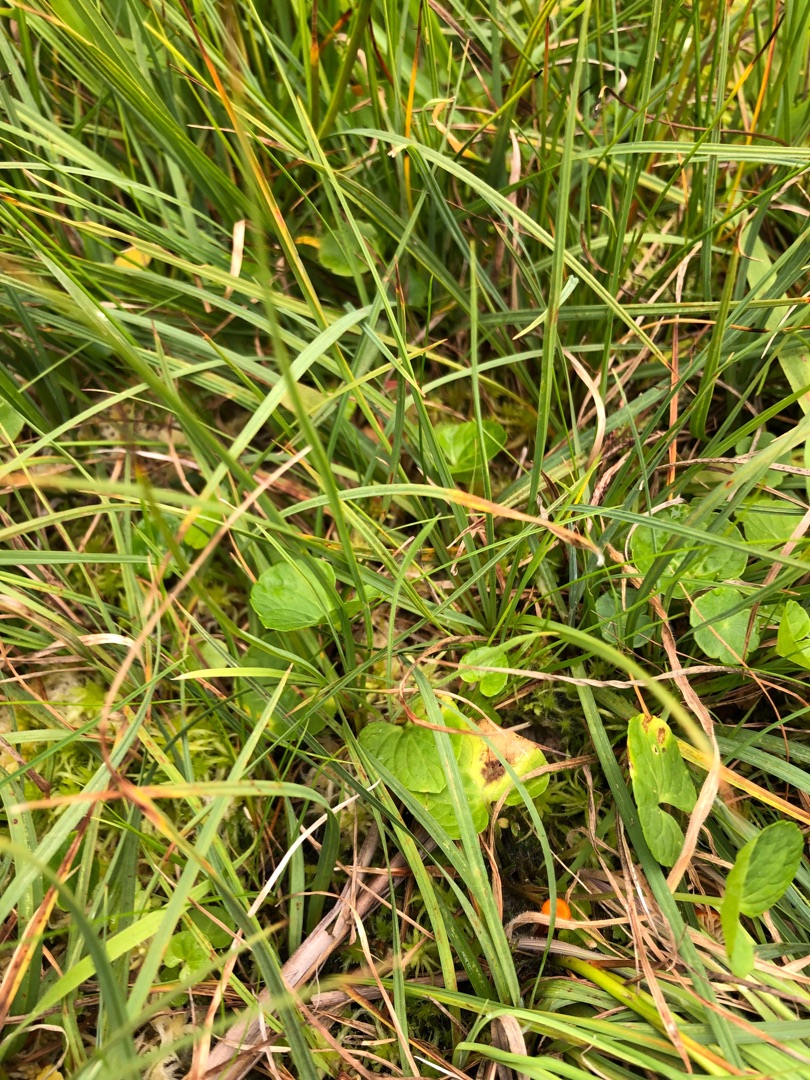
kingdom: Plantae
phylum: Tracheophyta
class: Magnoliopsida
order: Malpighiales
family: Violaceae
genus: Viola
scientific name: Viola palustris
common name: Eng-viol
